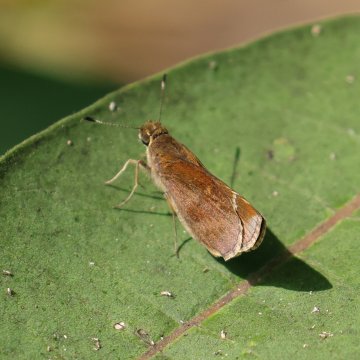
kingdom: Animalia
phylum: Arthropoda
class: Insecta
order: Lepidoptera
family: Hesperiidae
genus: Lerema
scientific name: Lerema accius
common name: Clouded Skipper
